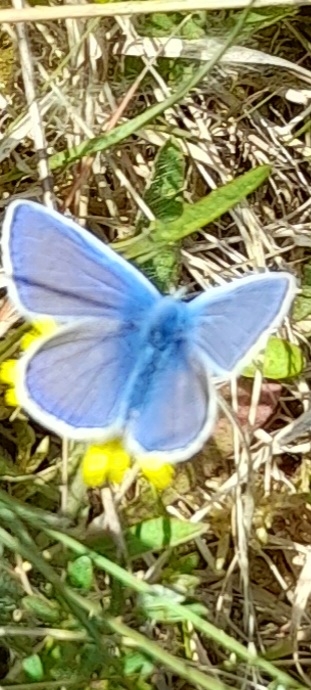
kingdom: Animalia
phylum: Arthropoda
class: Insecta
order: Lepidoptera
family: Lycaenidae
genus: Polyommatus
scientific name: Polyommatus icarus
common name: Almindelig blåfugl
